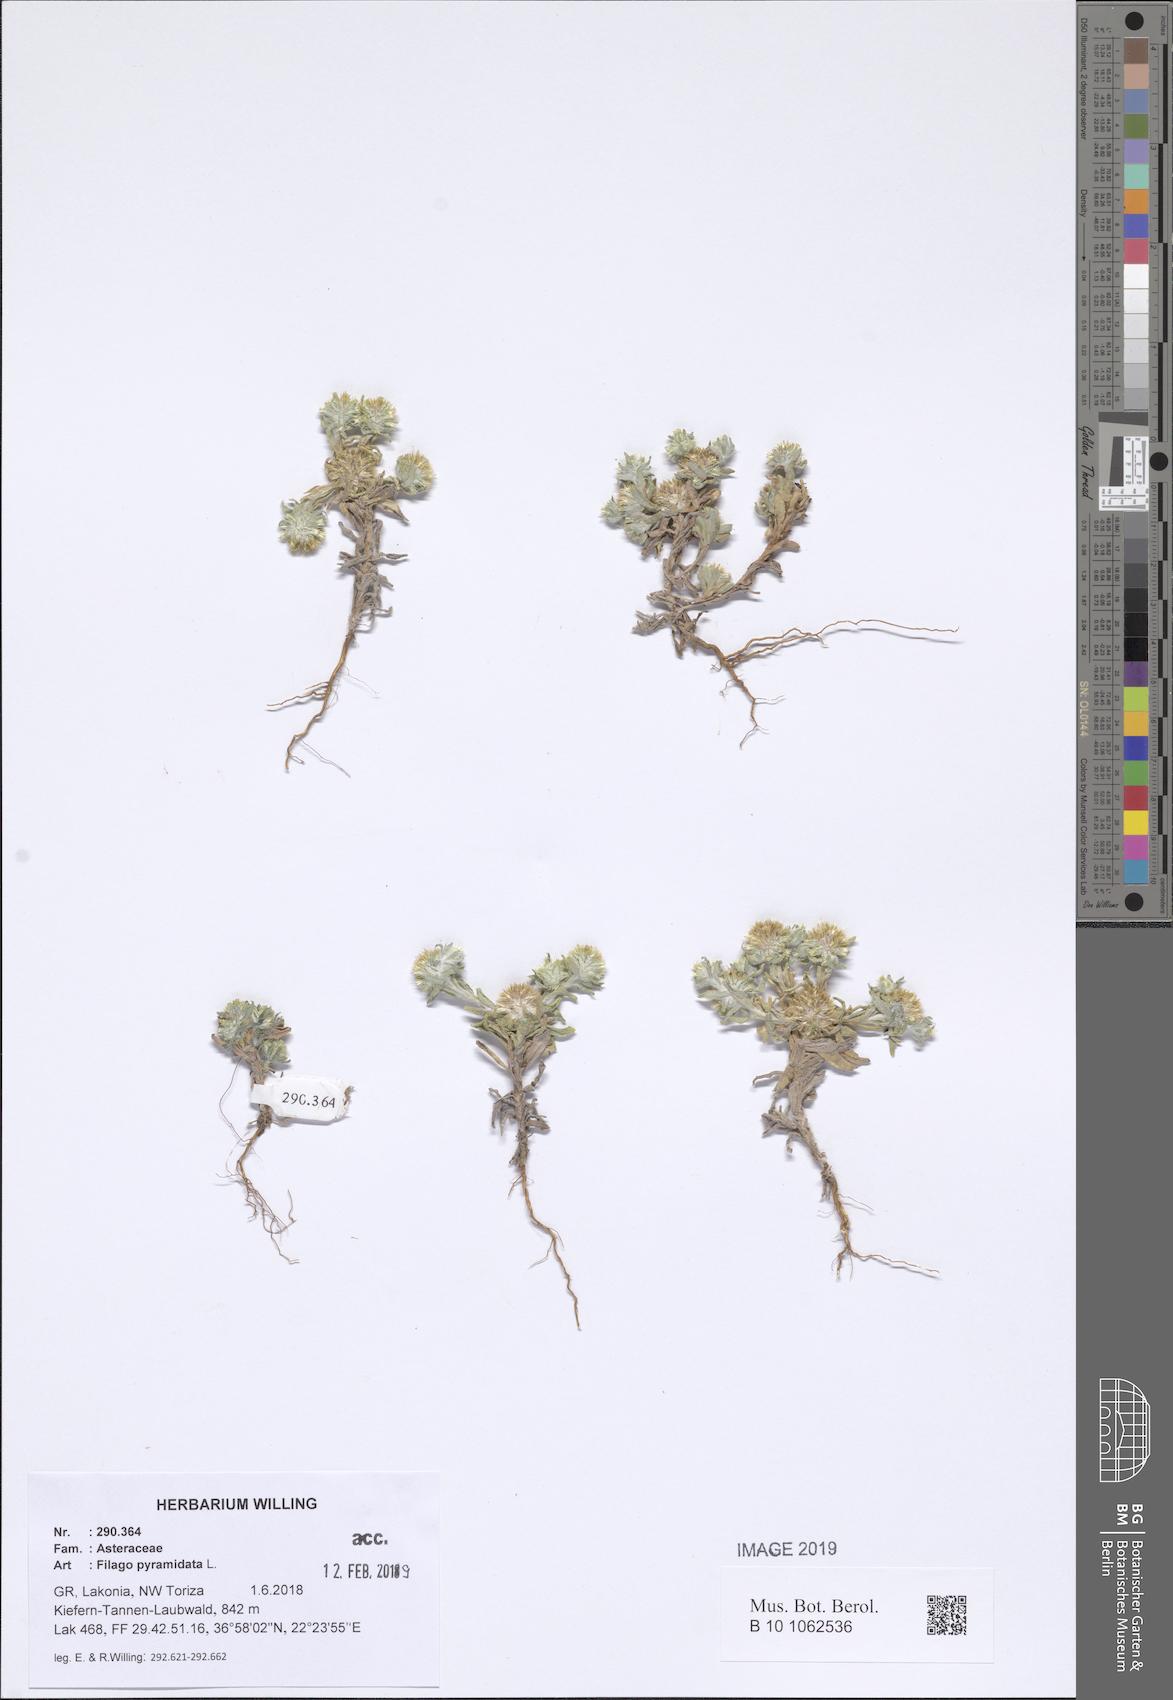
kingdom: Plantae
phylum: Tracheophyta
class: Magnoliopsida
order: Asterales
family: Asteraceae
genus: Filago
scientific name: Filago pyramidata
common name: Broad-leaved cudweed
